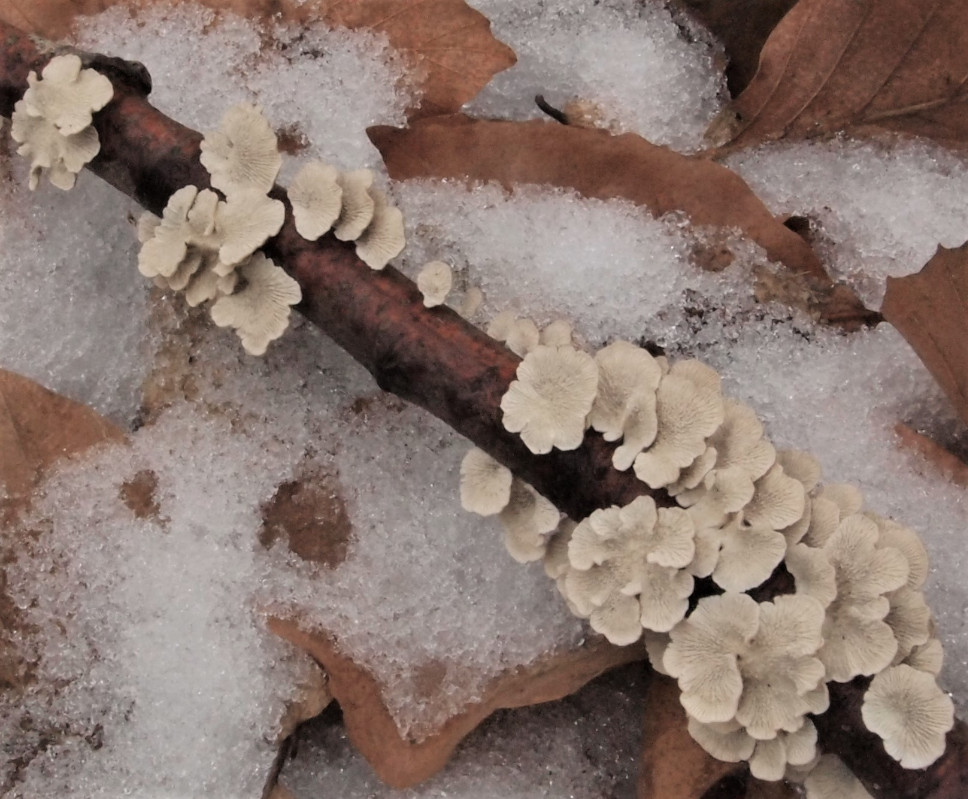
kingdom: Fungi
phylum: Basidiomycota
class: Agaricomycetes
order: Amylocorticiales
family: Amylocorticiaceae
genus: Plicaturopsis
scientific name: Plicaturopsis crispa
